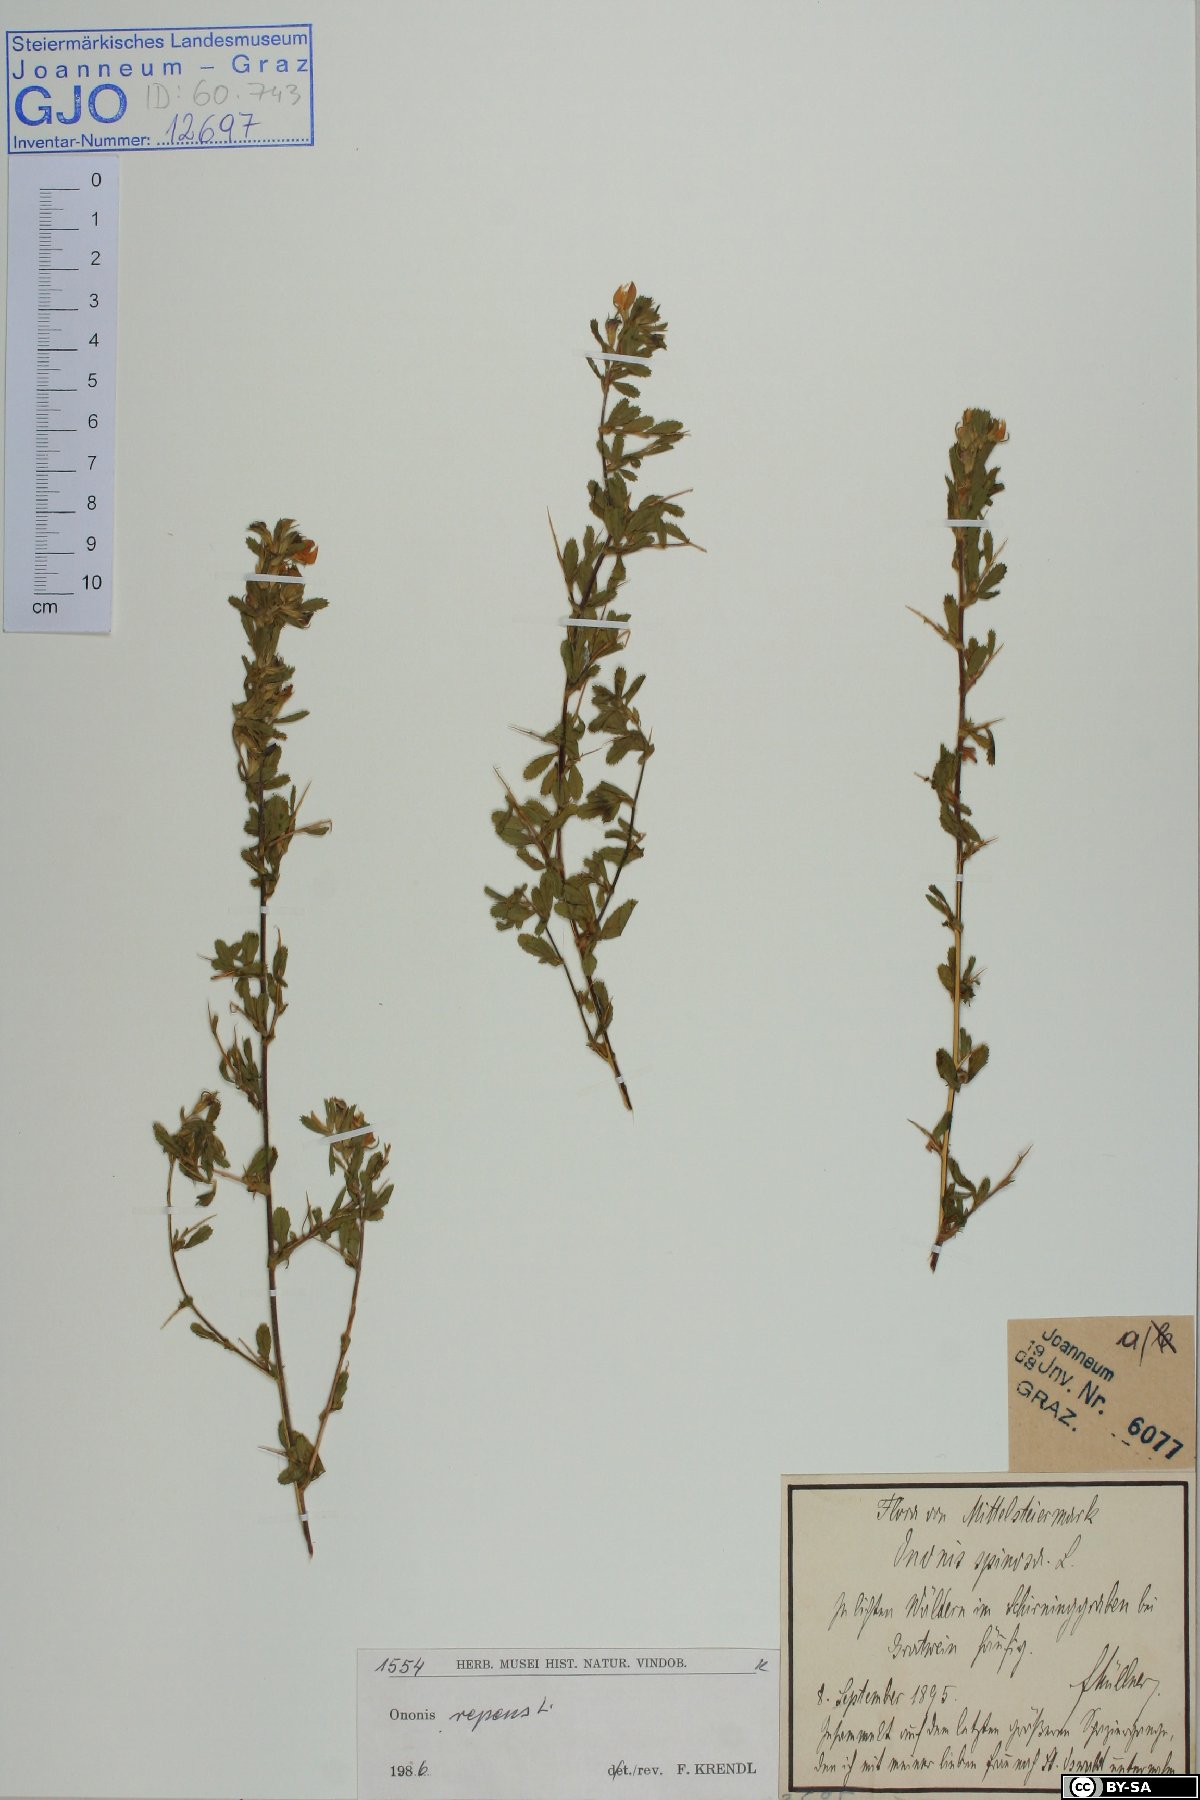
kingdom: Plantae
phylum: Tracheophyta
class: Magnoliopsida
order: Fabales
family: Fabaceae
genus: Ononis
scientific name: Ononis spinosa
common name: Spiny restharrow
